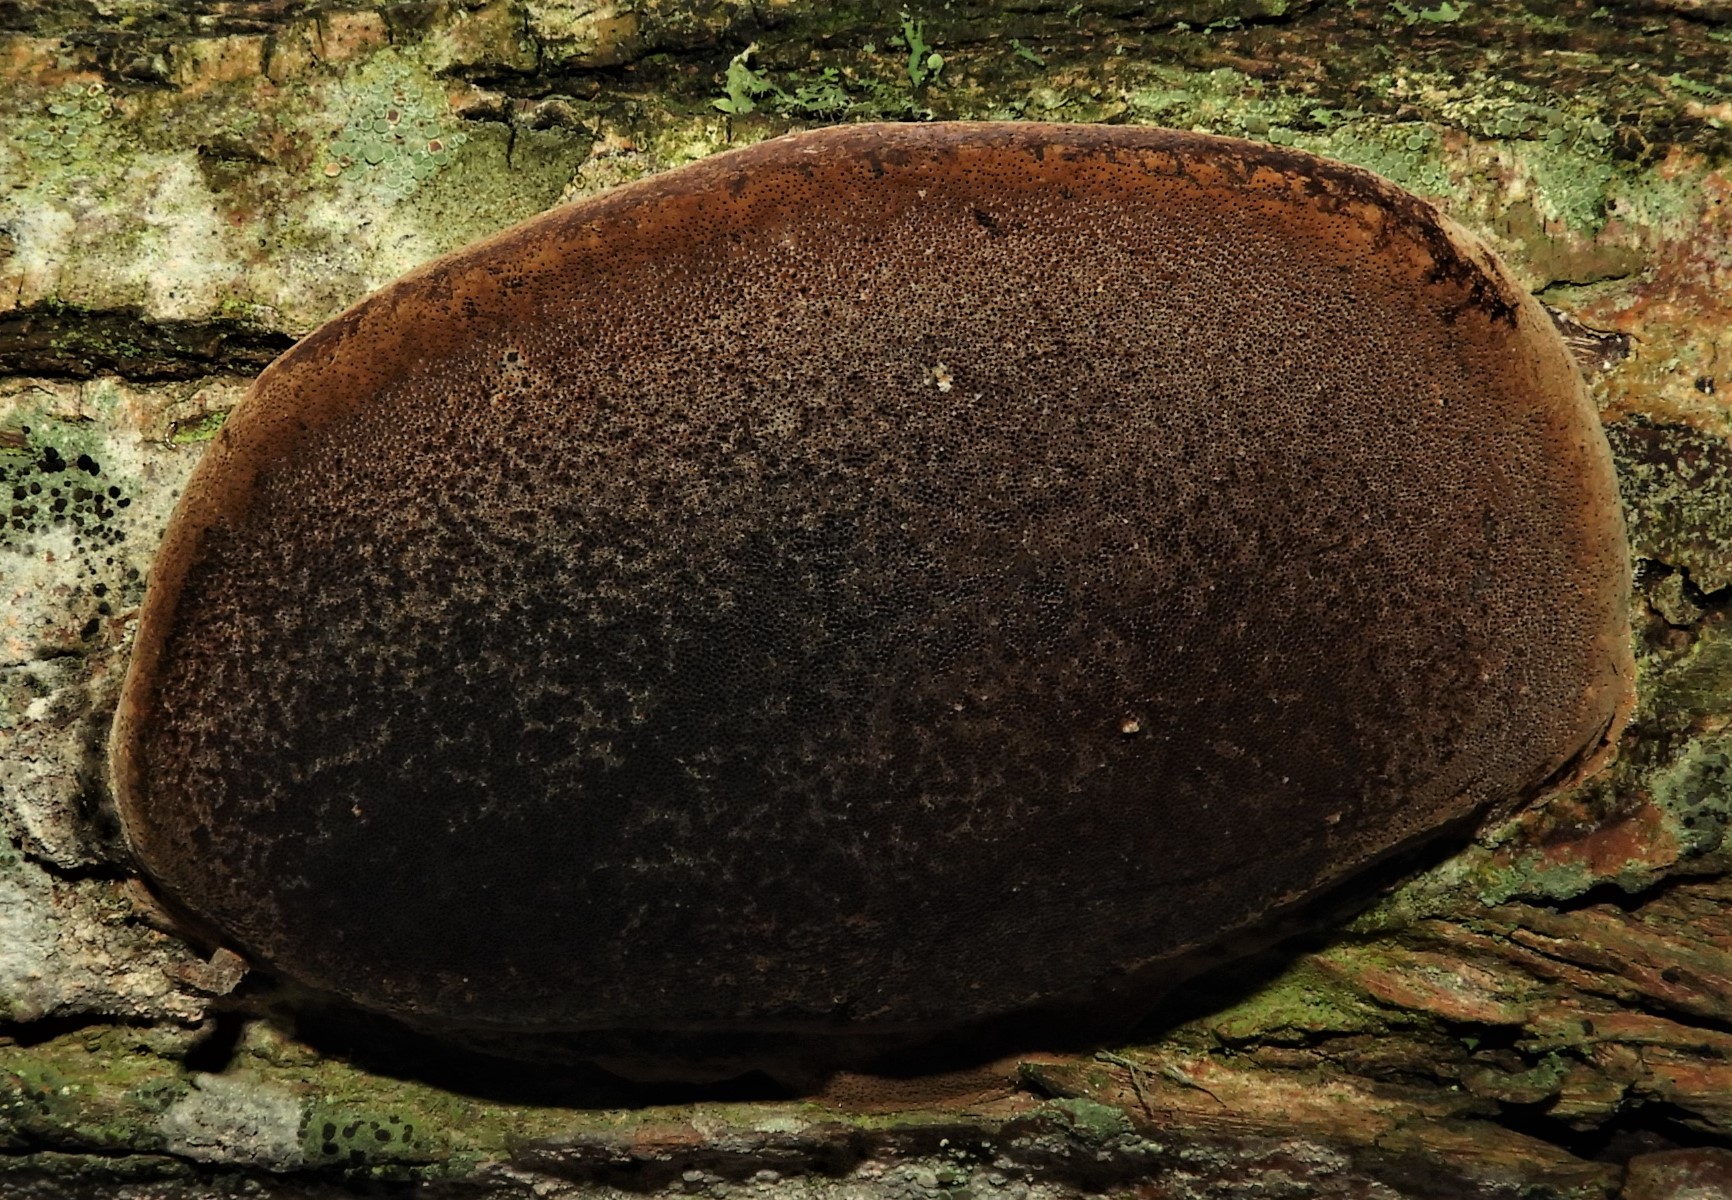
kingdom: Fungi
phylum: Basidiomycota
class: Agaricomycetes
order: Hymenochaetales
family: Hymenochaetaceae
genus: Phellinus
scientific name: Phellinus igniarius
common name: almindelig ildporesvamp
